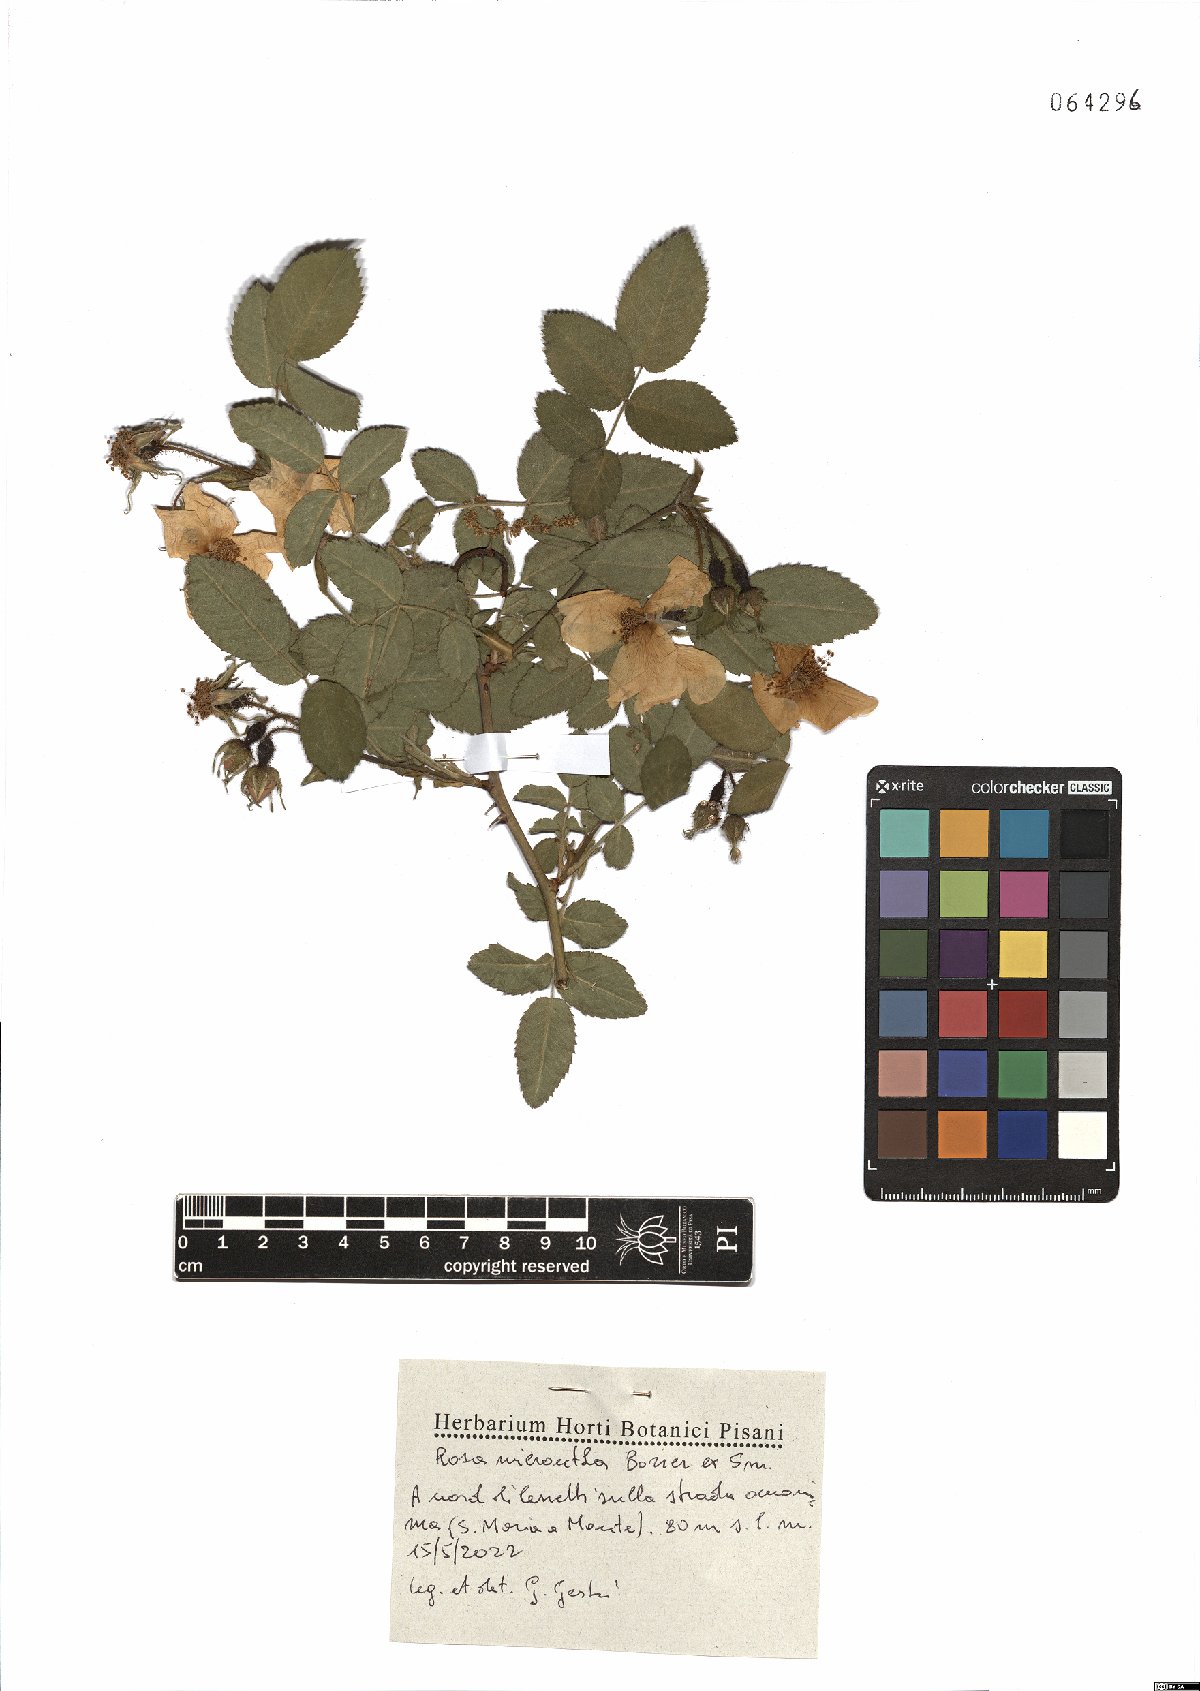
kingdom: Plantae
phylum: Tracheophyta
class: Magnoliopsida
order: Rosales
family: Rosaceae
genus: Rosa
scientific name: Rosa micrantha
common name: Small-flowered sweet-briar
